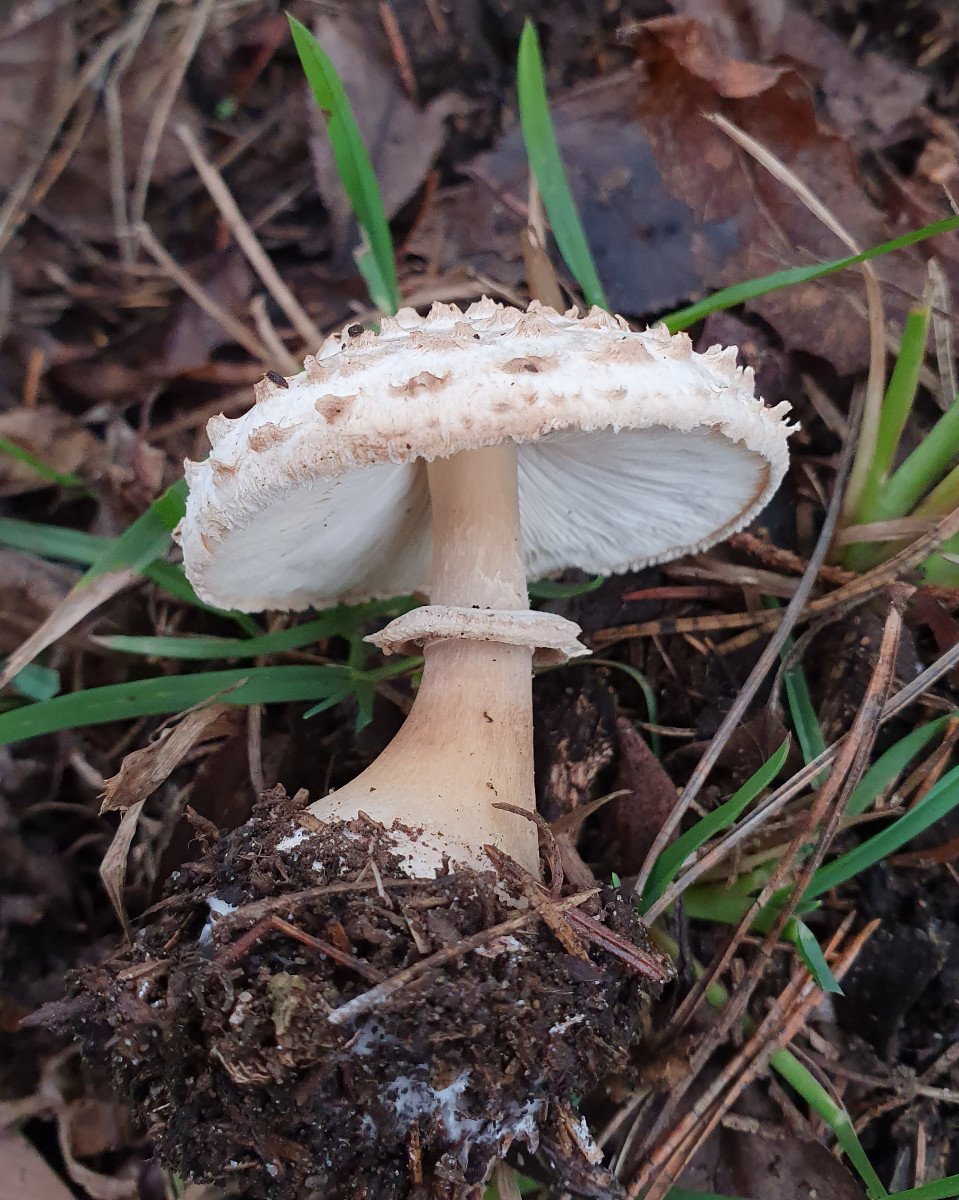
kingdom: Fungi
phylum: Basidiomycota
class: Agaricomycetes
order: Agaricales
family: Agaricaceae
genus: Chlorophyllum
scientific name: Chlorophyllum
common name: rabarberhat
